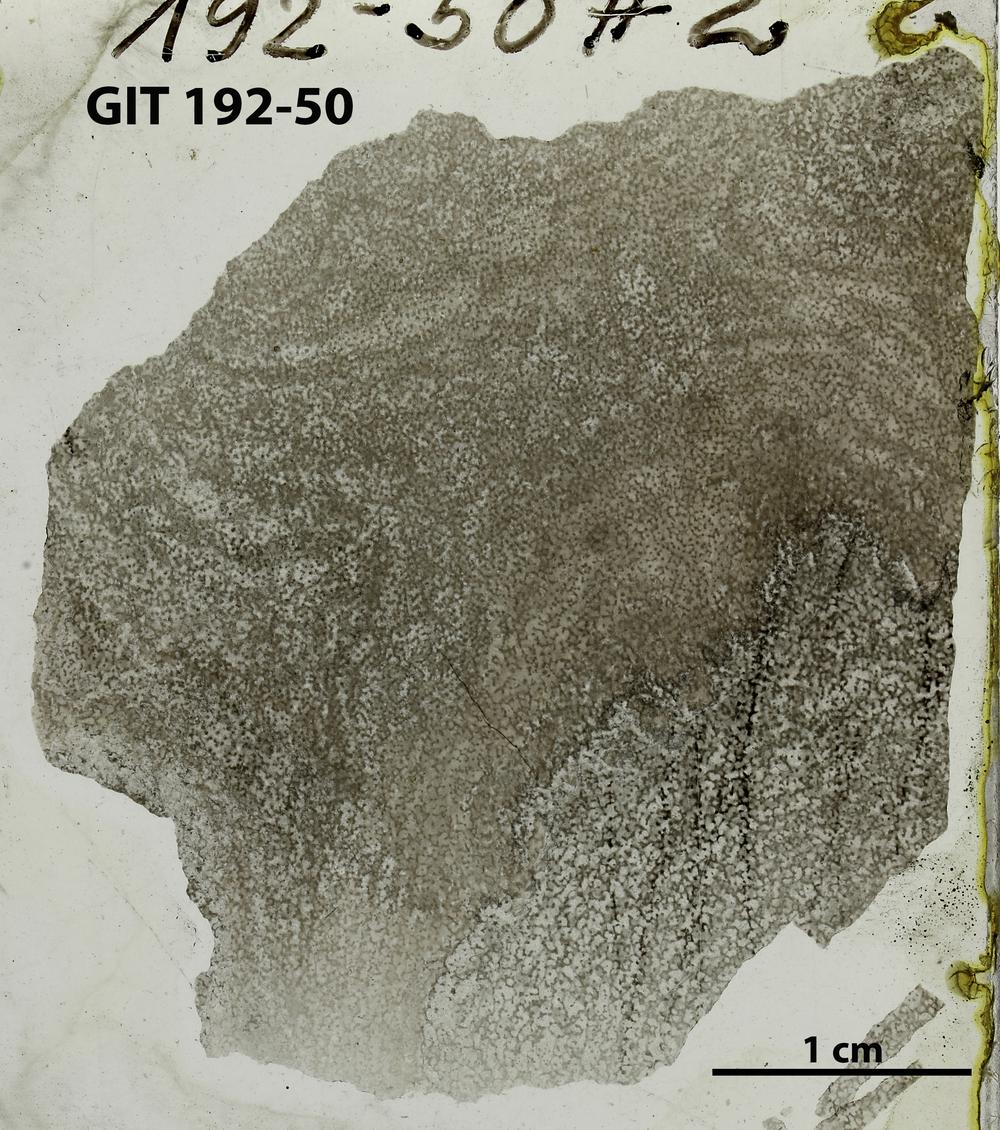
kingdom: Animalia
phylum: Porifera
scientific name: Porifera
